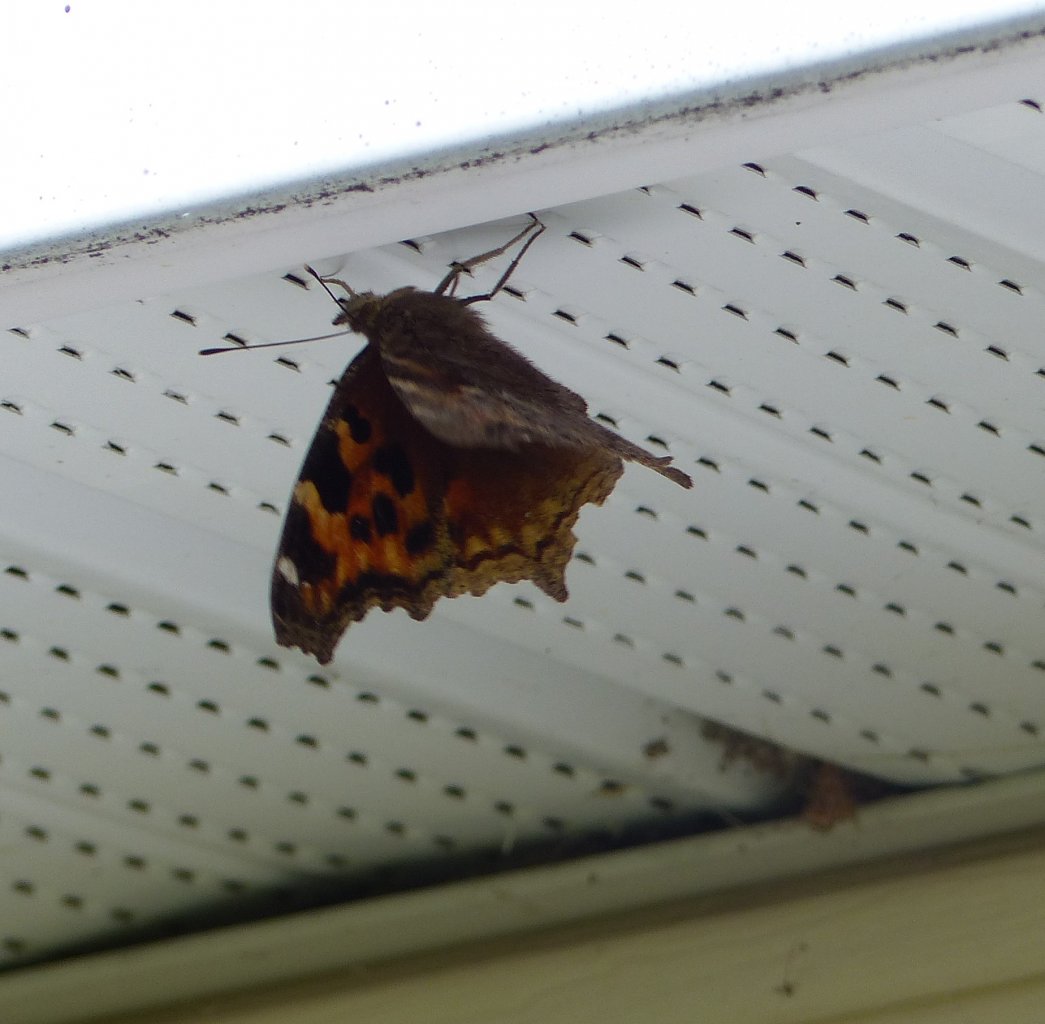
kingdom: Animalia
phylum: Arthropoda
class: Insecta
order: Lepidoptera
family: Nymphalidae
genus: Nymphalis
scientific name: Nymphalis
